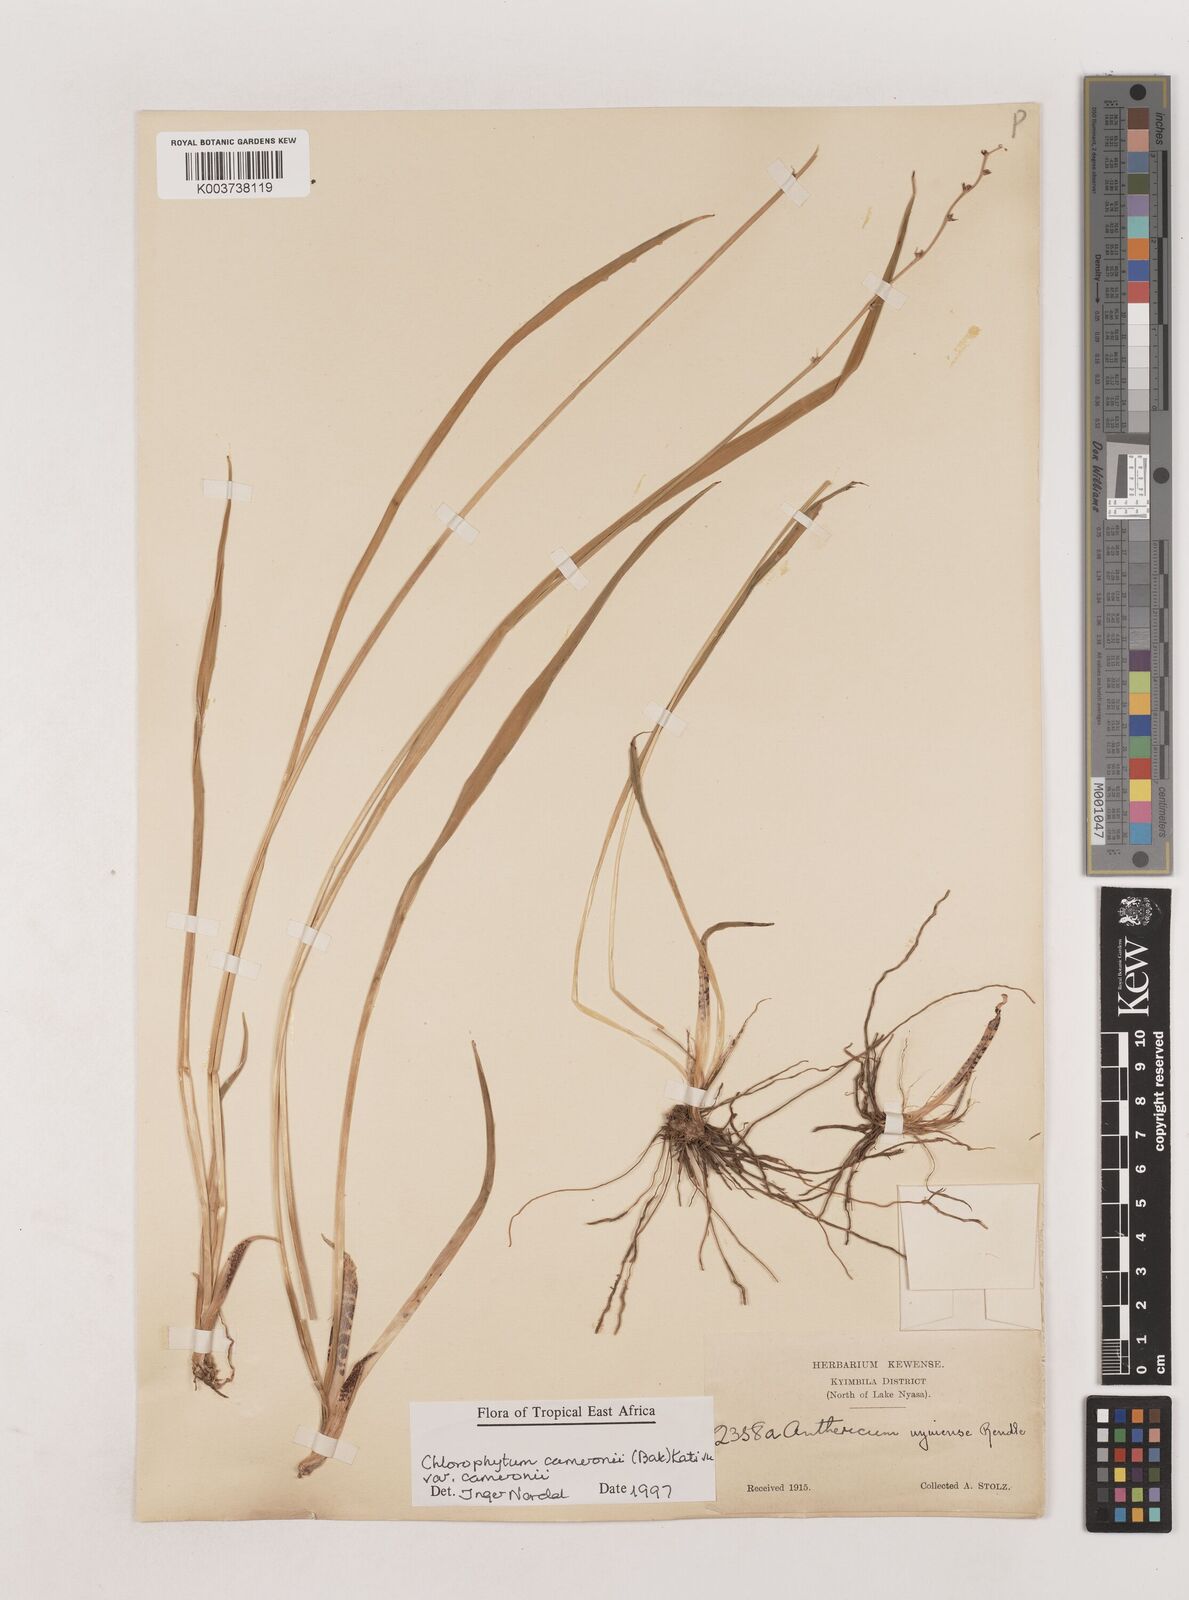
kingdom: Plantae
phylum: Tracheophyta
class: Liliopsida
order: Asparagales
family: Asparagaceae
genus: Chlorophytum
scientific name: Chlorophytum cameronii
